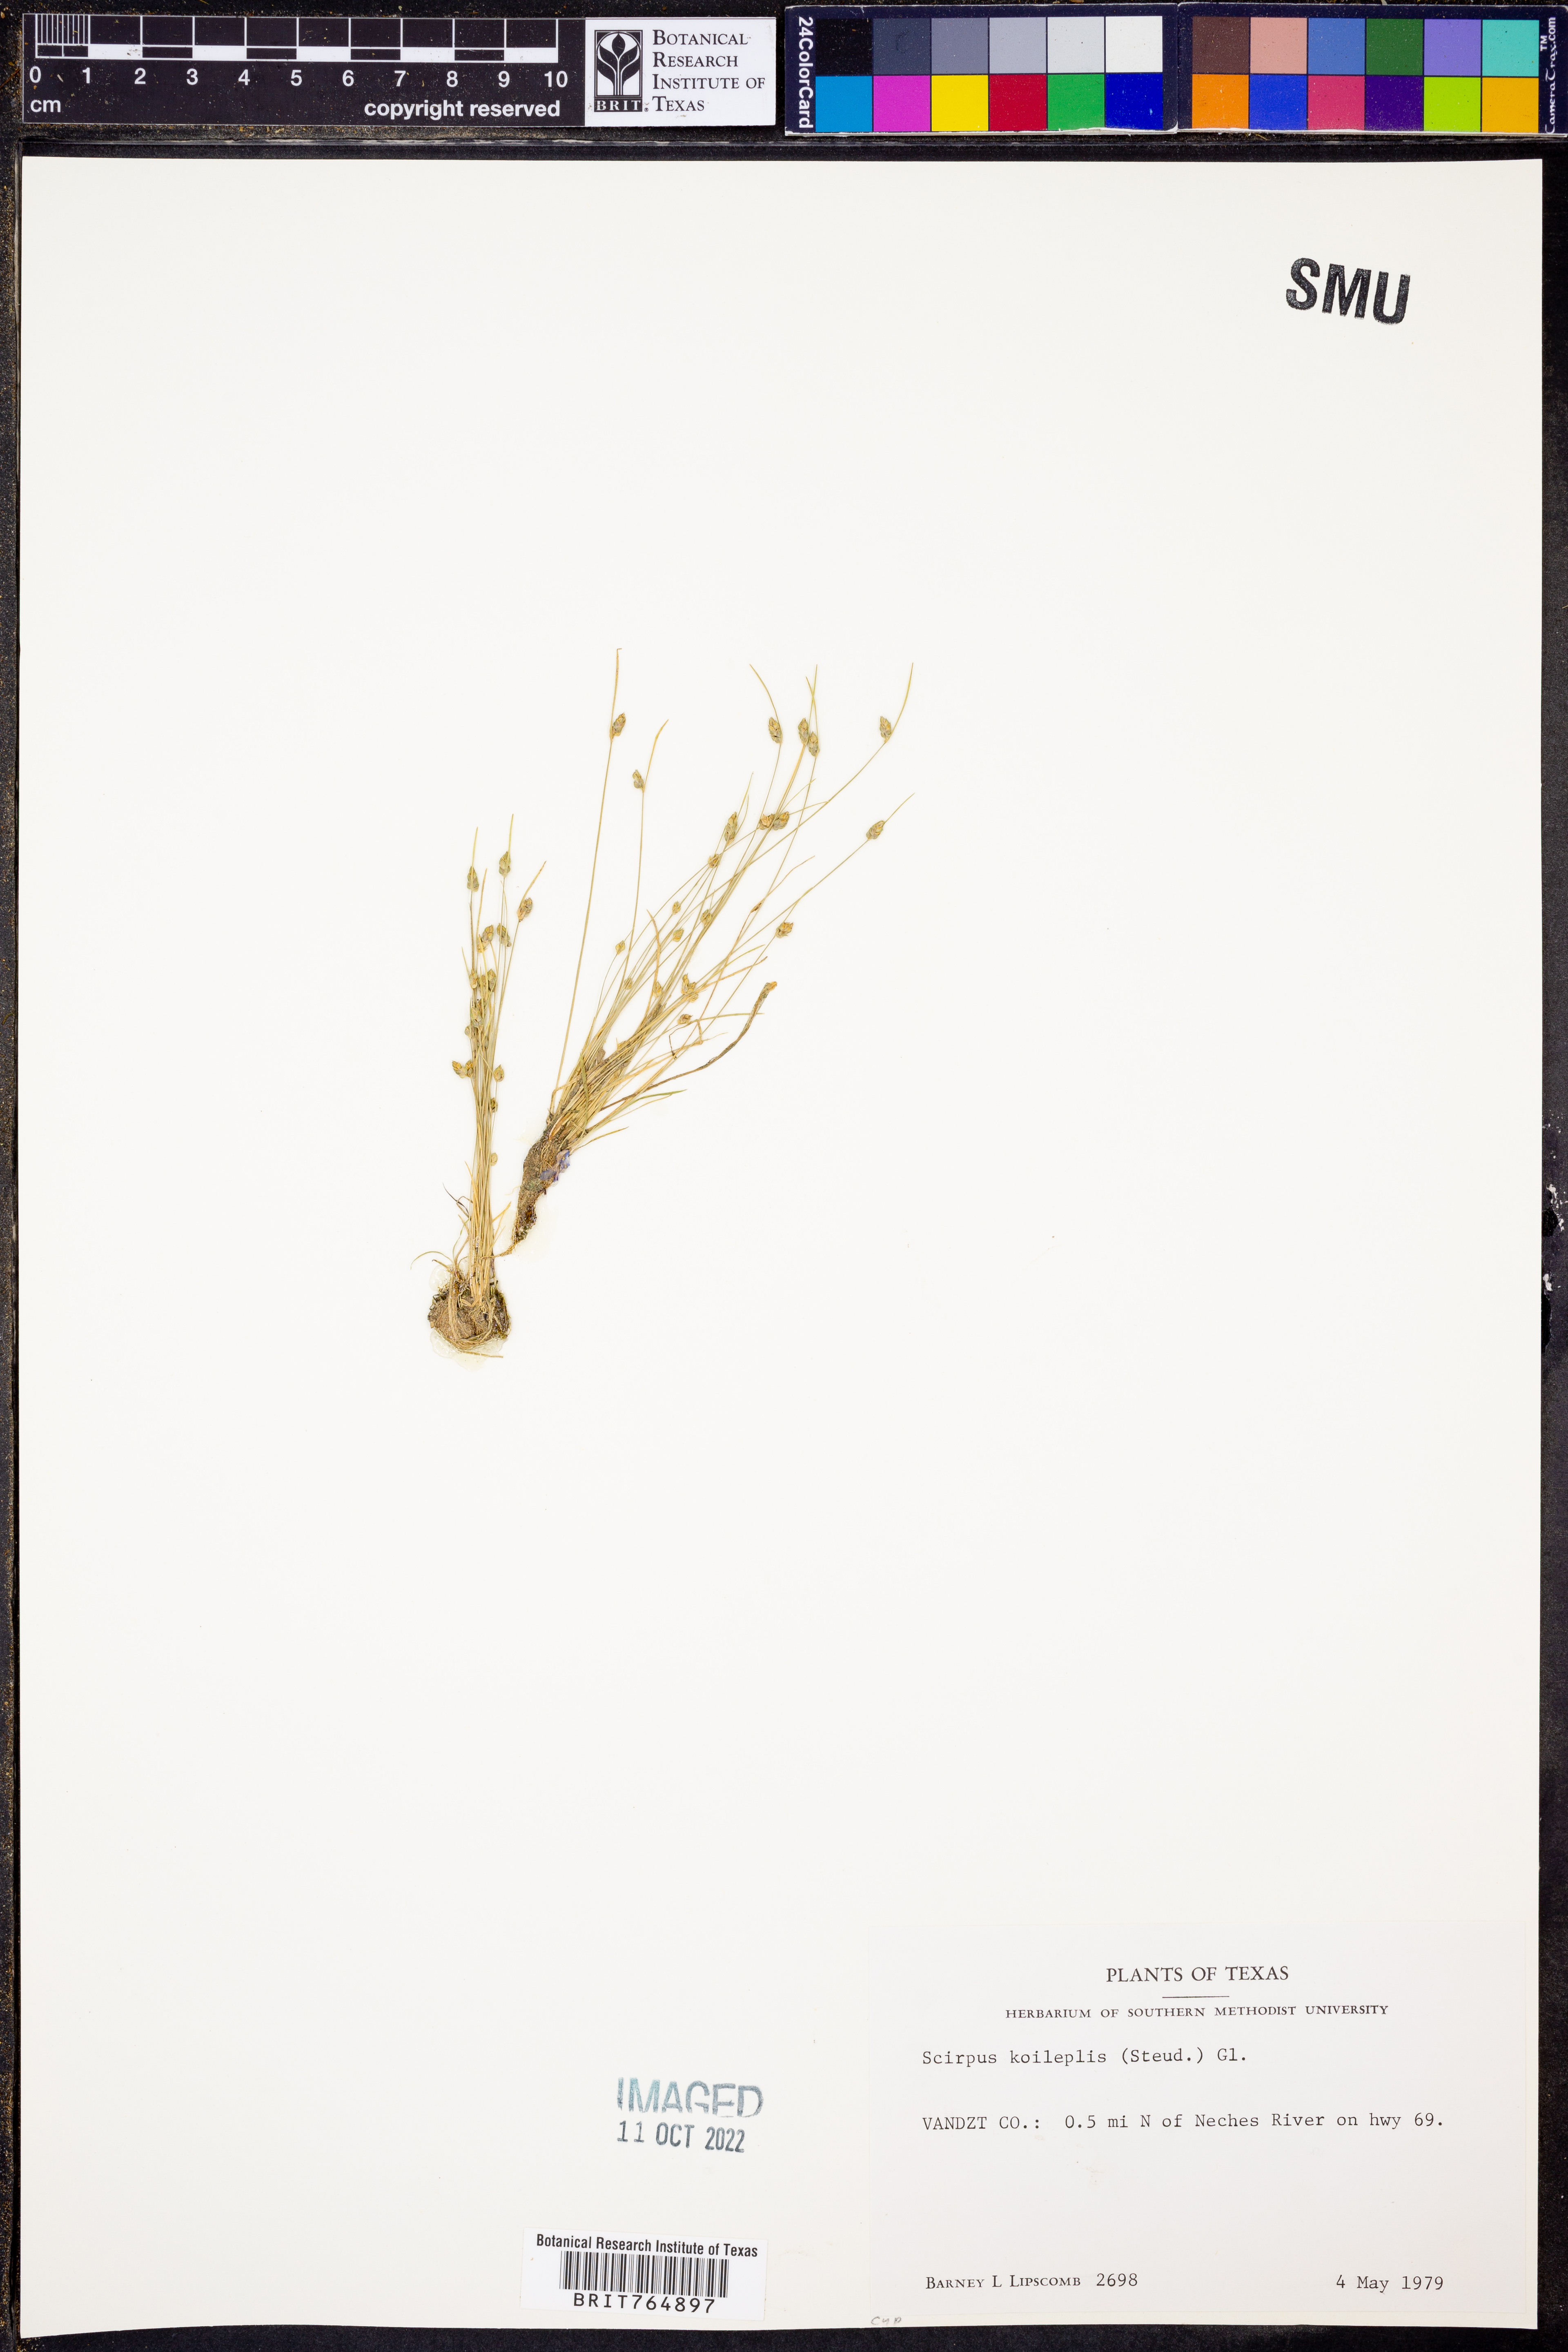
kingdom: Plantae
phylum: Tracheophyta
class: Liliopsida
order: Poales
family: Cyperaceae
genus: Isolepis
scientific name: Isolepis carinata
